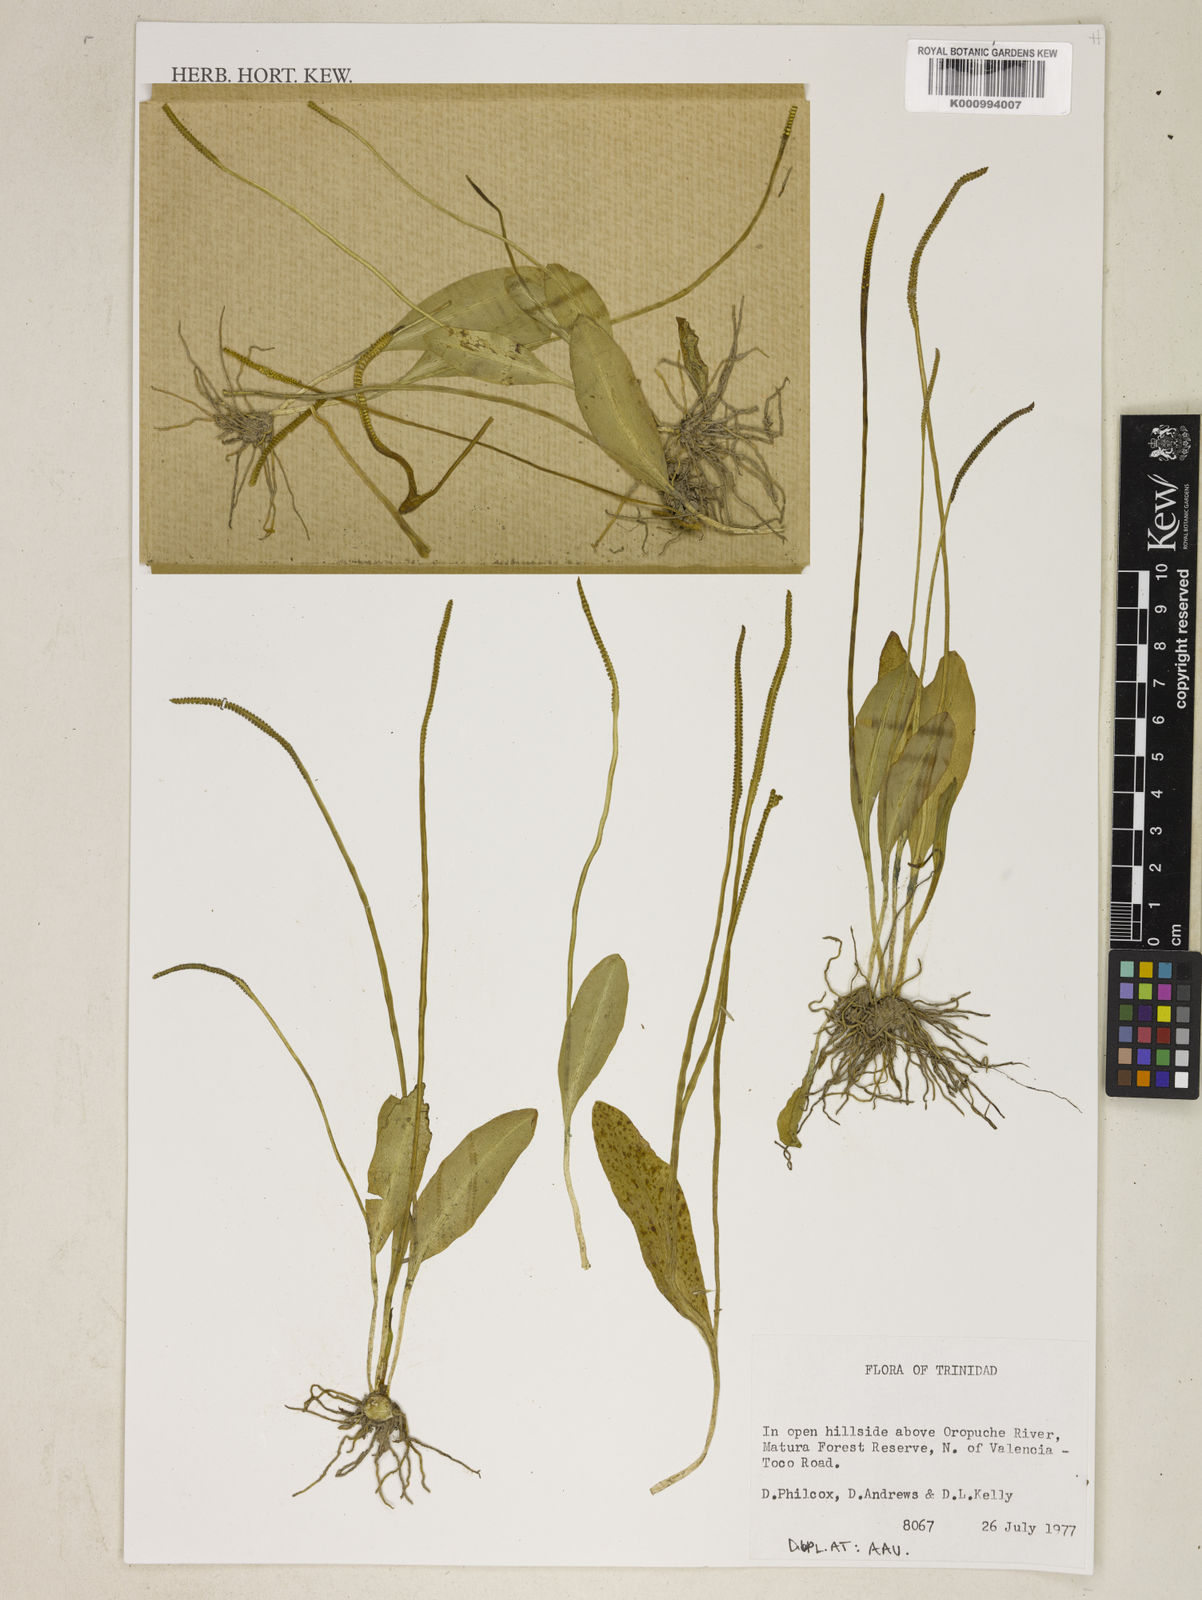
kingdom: Plantae
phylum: Tracheophyta
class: Polypodiopsida
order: Ophioglossales
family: Ophioglossaceae
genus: Ophioglossum
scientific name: Ophioglossum
